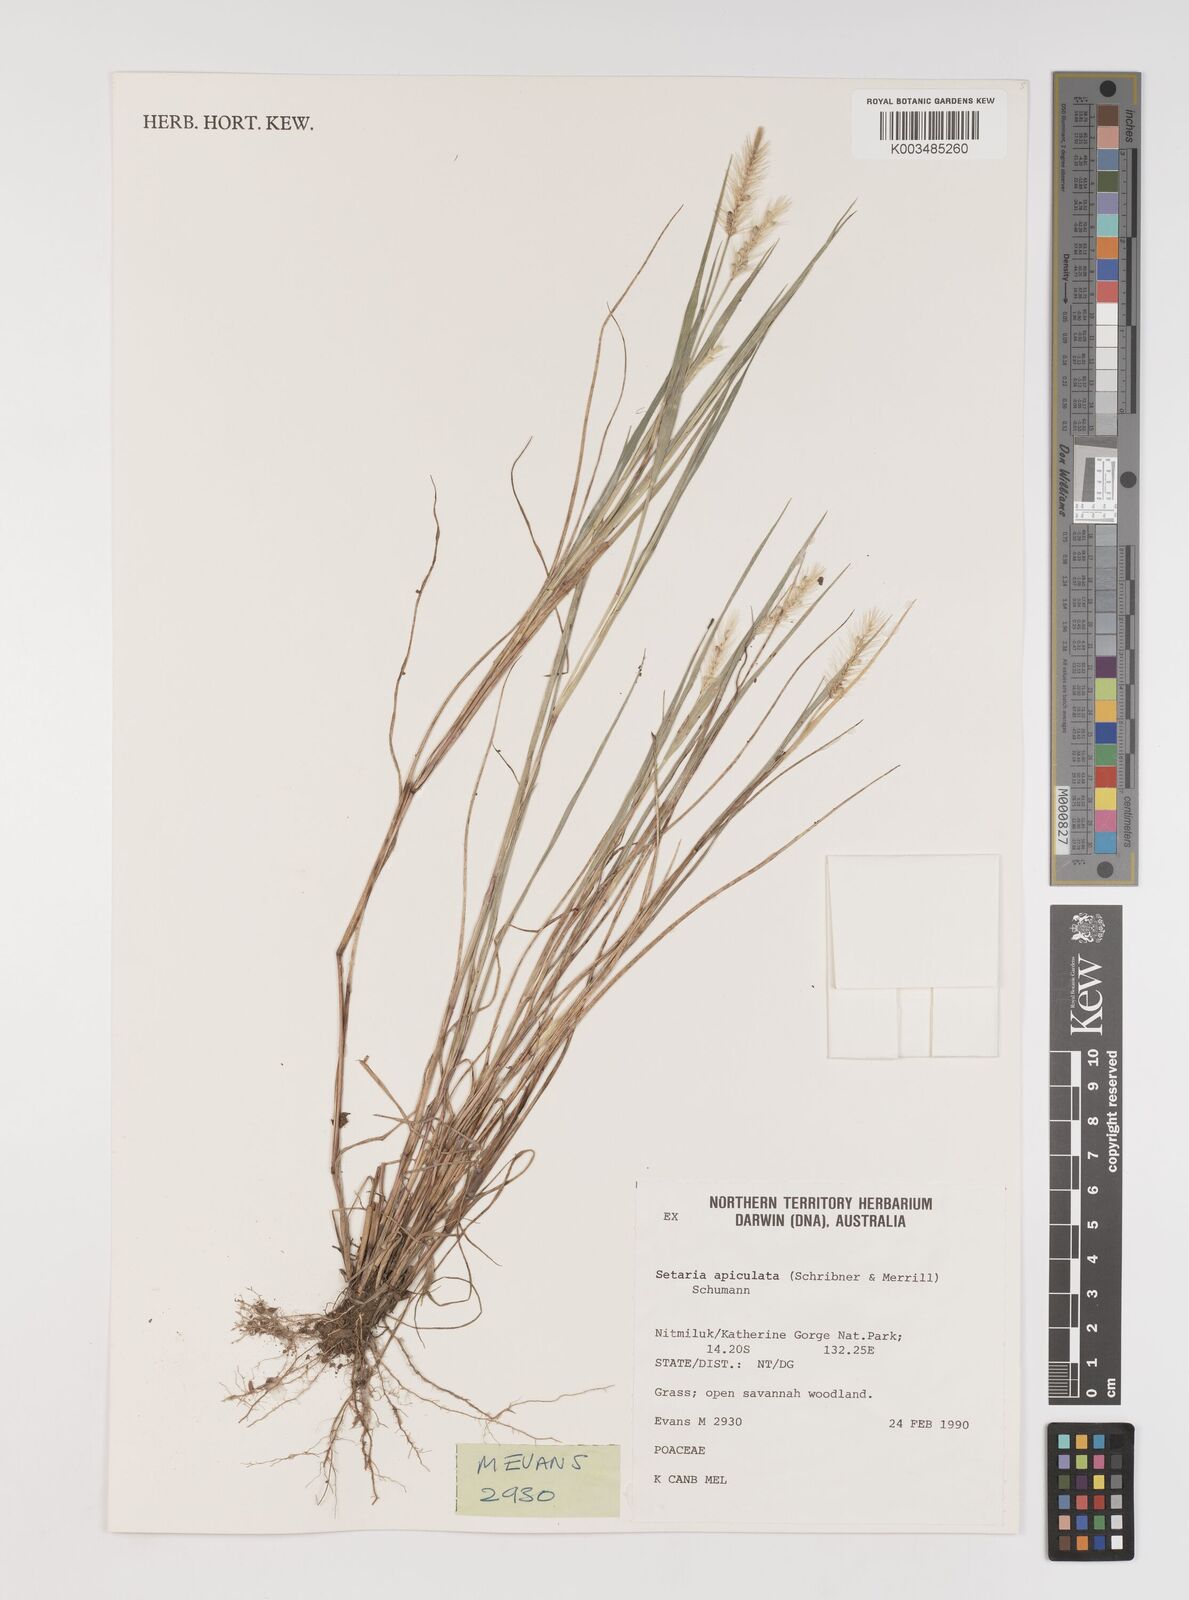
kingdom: Plantae
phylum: Tracheophyta
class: Liliopsida
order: Poales
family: Poaceae
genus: Setaria
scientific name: Setaria surgens
